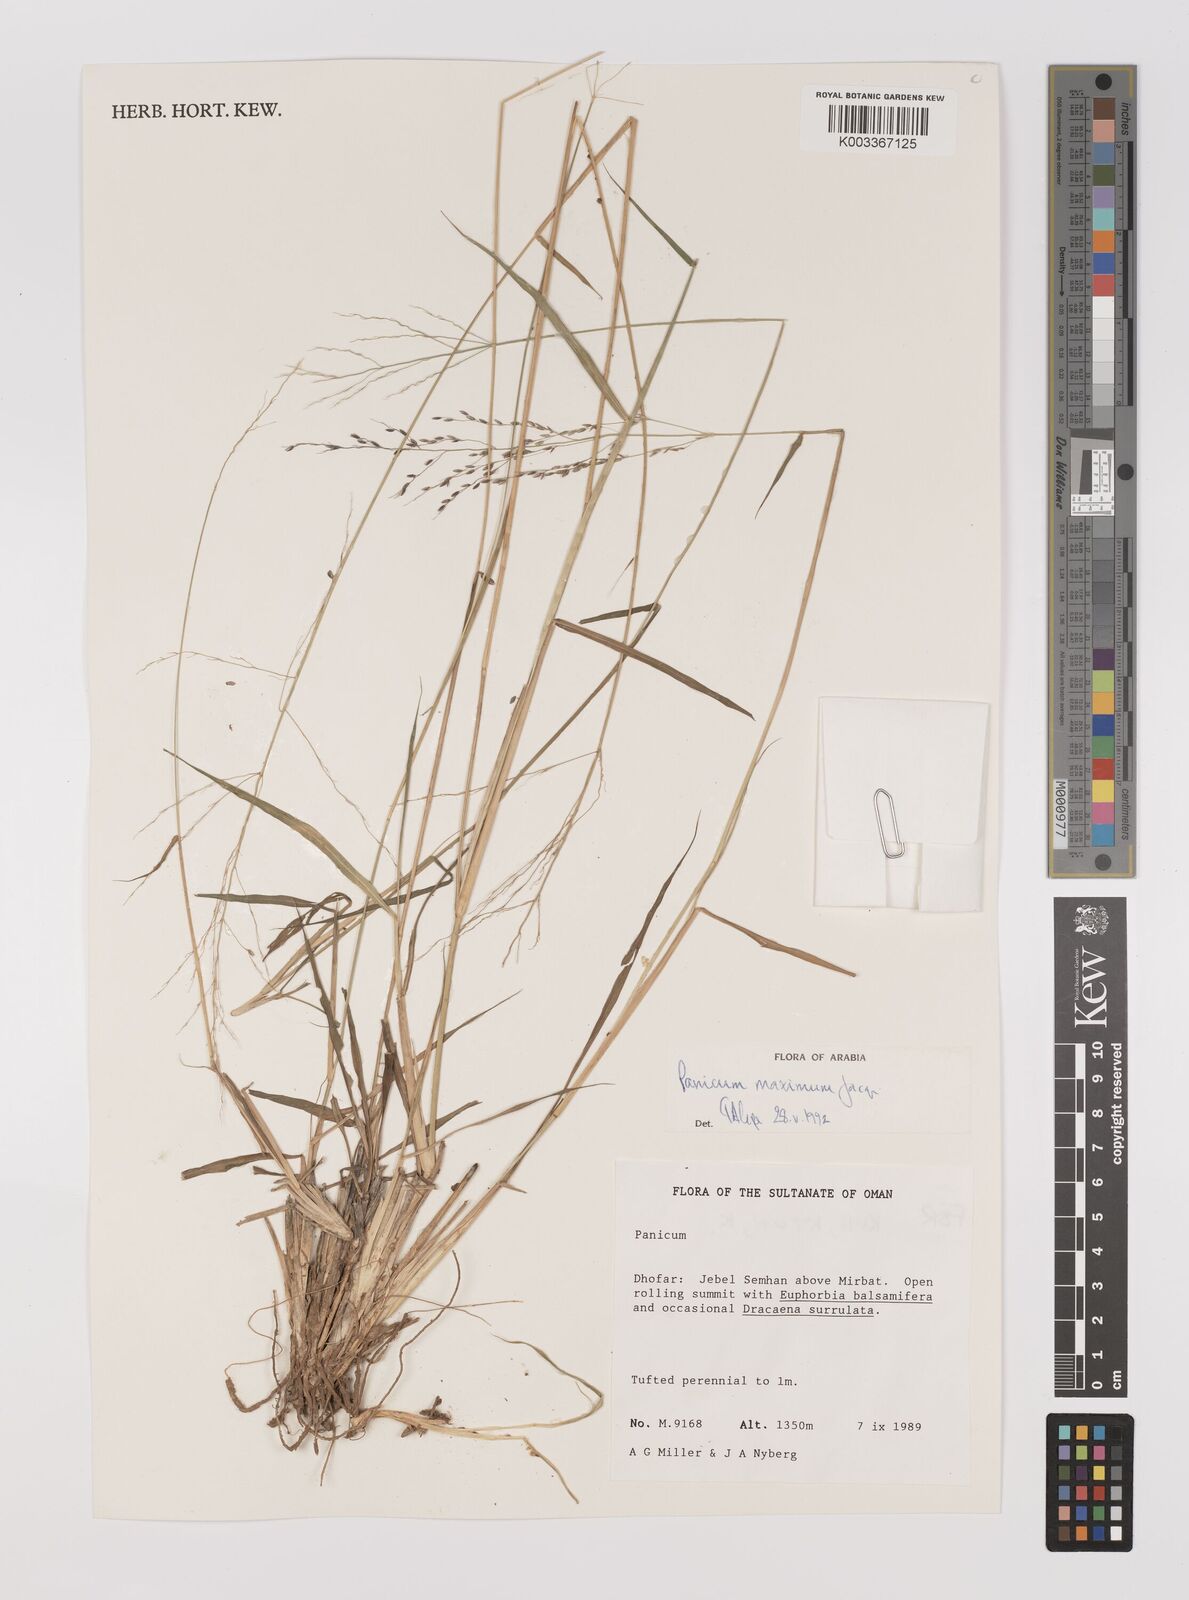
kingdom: Plantae
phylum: Tracheophyta
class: Liliopsida
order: Poales
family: Poaceae
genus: Megathyrsus
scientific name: Megathyrsus maximus
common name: Guineagrass
